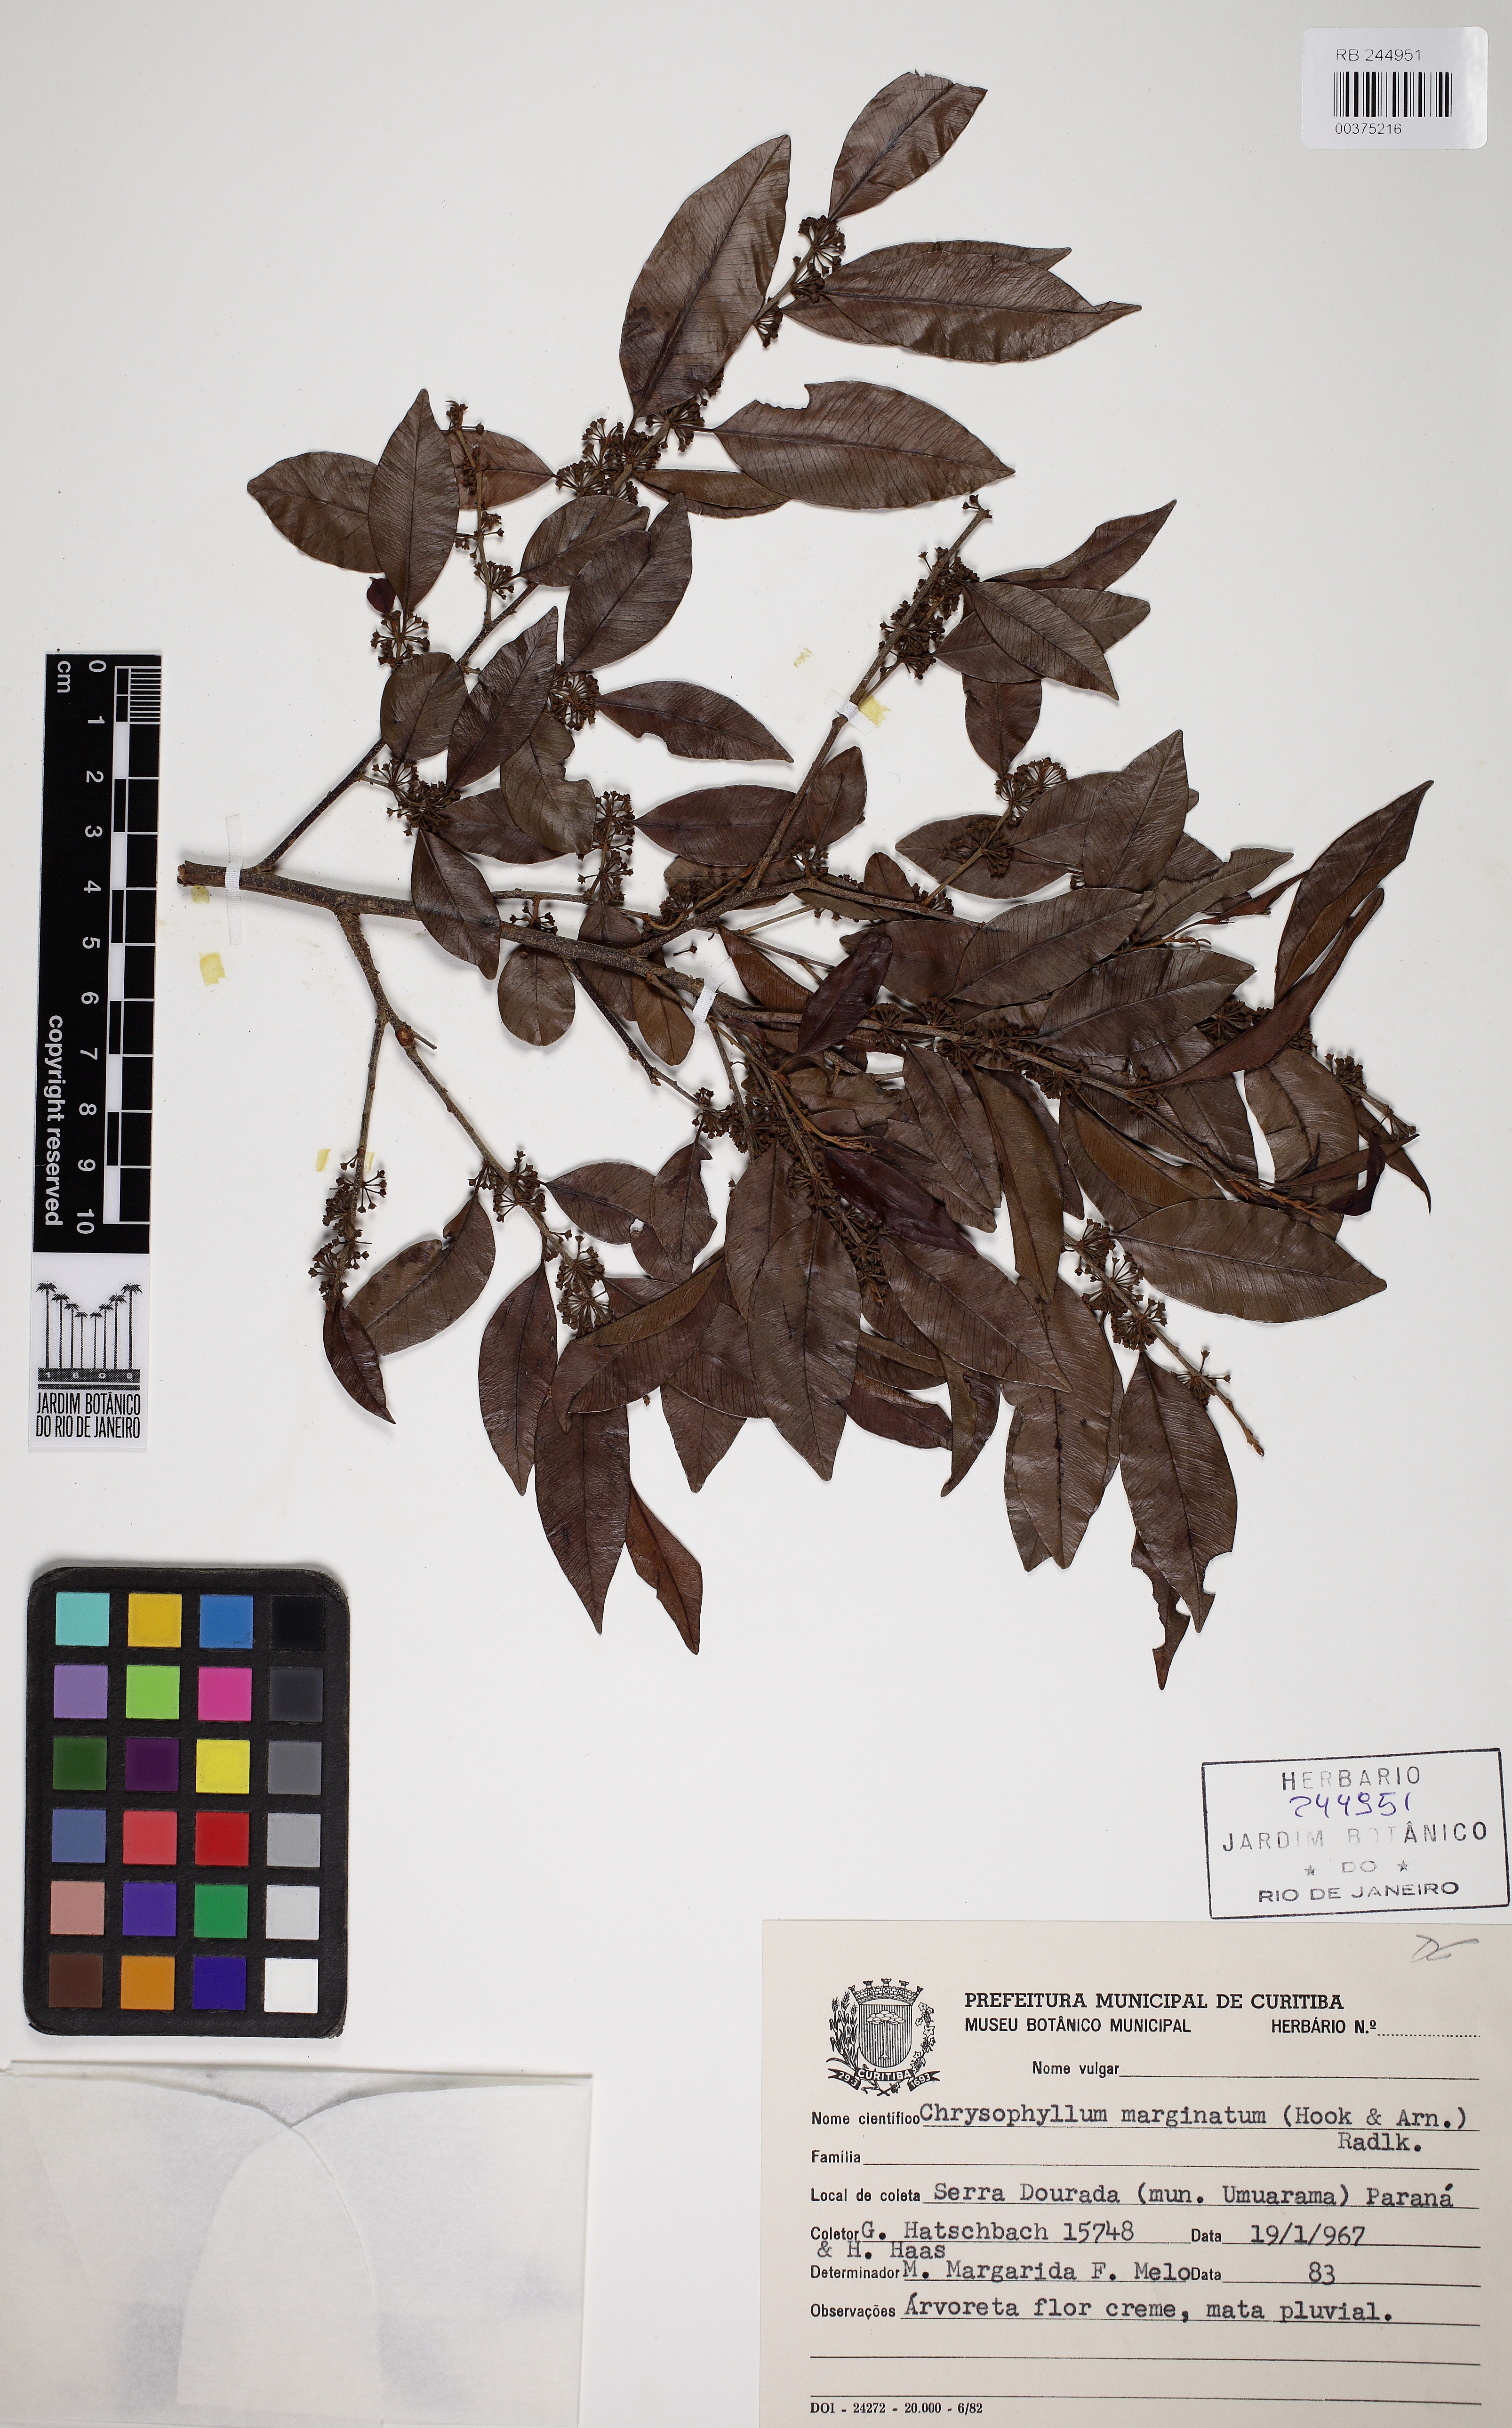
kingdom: Plantae
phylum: Tracheophyta
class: Magnoliopsida
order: Ericales
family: Sapotaceae
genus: Chrysophyllum
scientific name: Chrysophyllum marginatum
